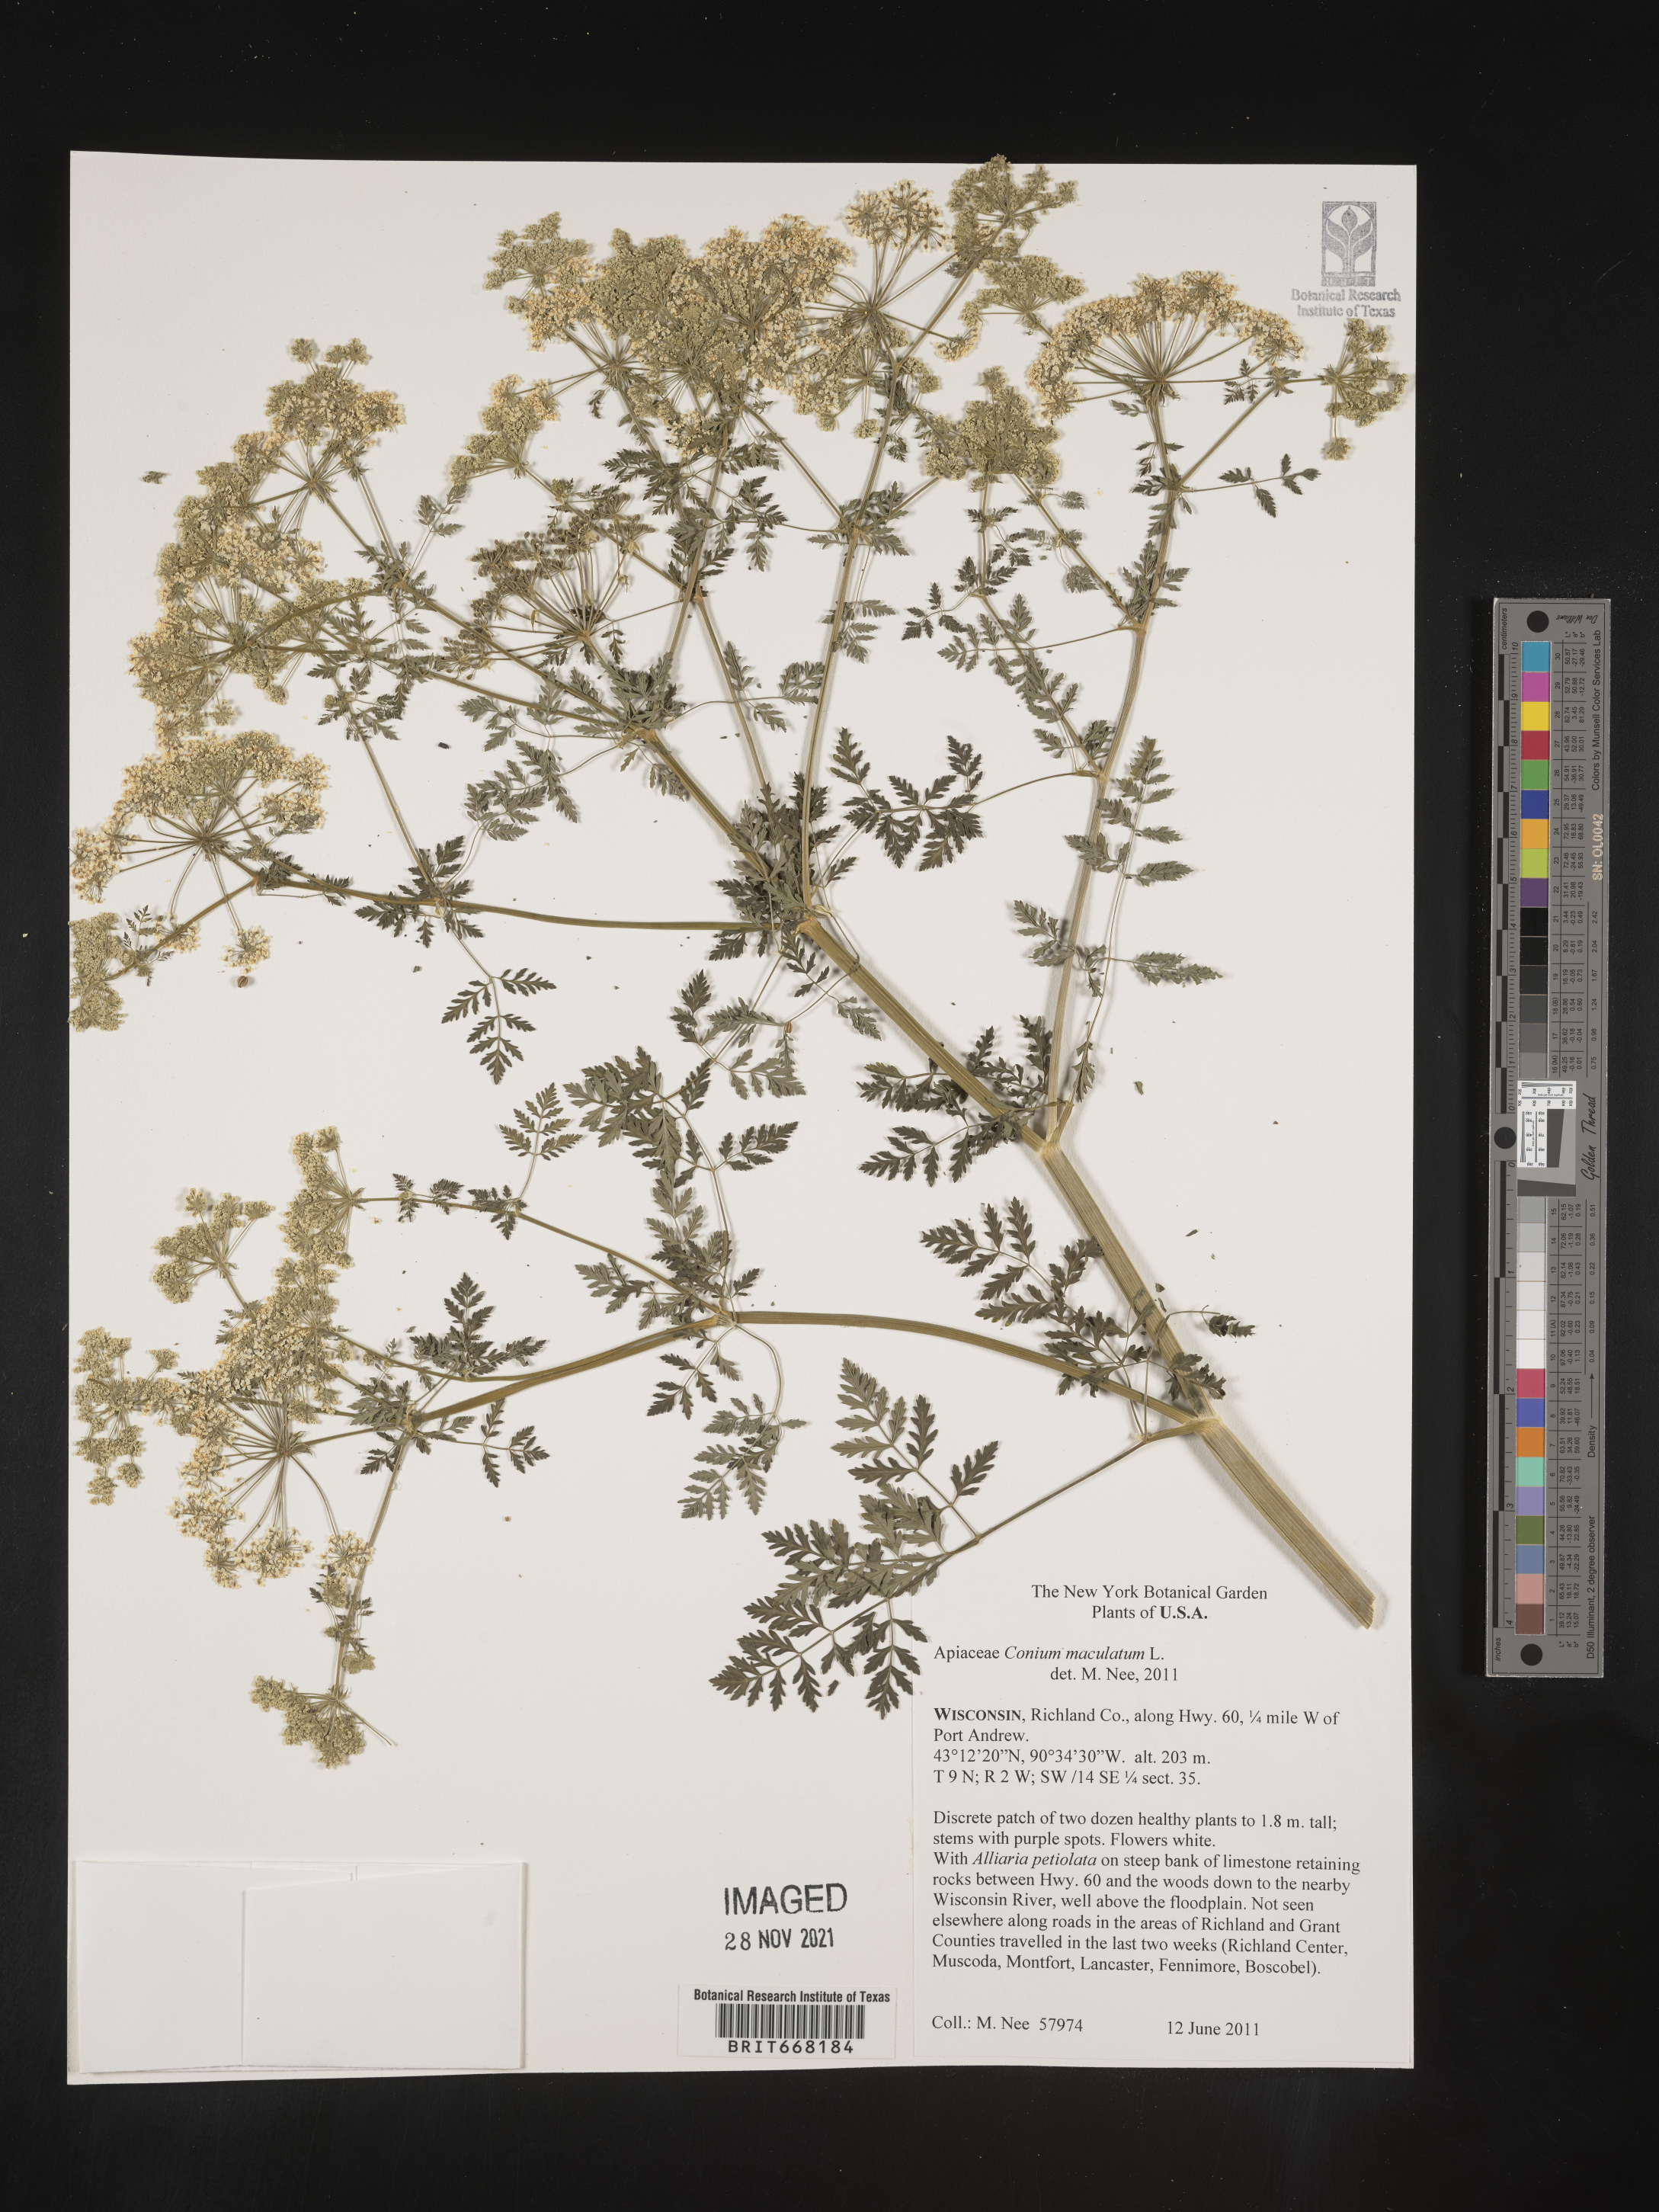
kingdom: Plantae
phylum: Tracheophyta
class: Magnoliopsida
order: Apiales
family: Apiaceae
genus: Conium
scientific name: Conium maculatum
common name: Hemlock
